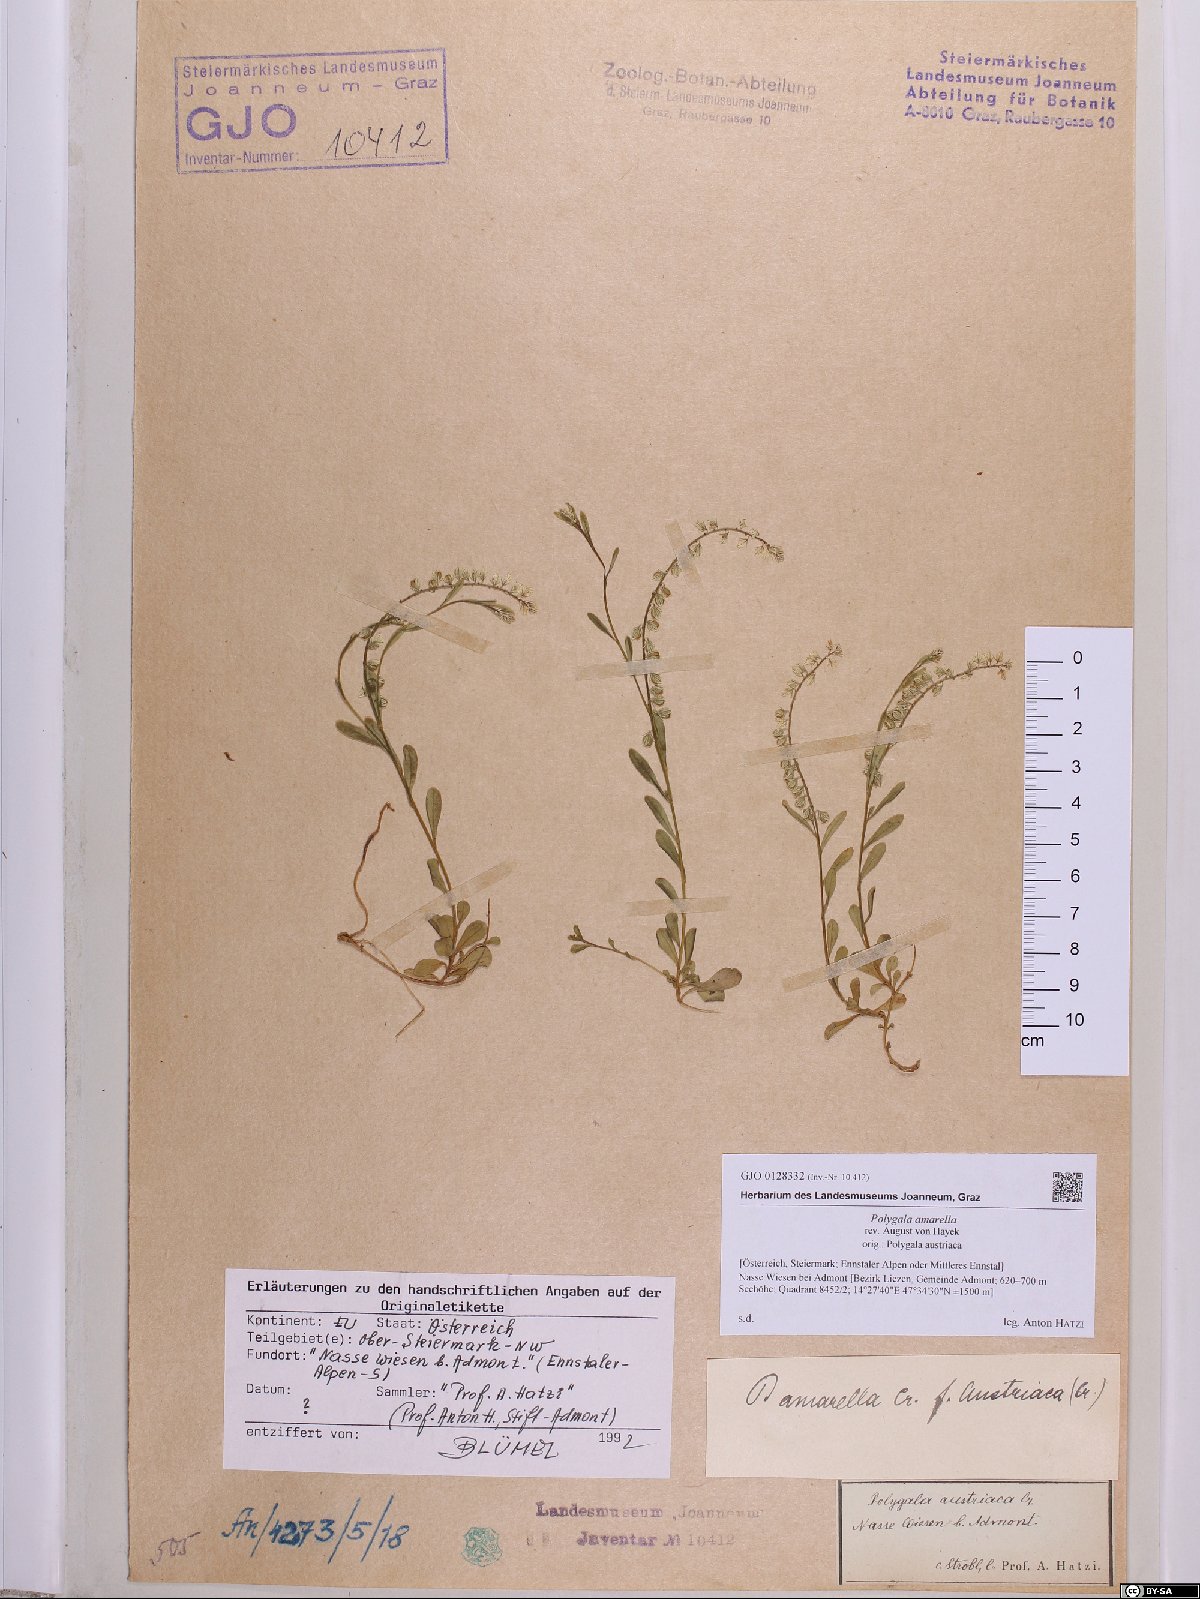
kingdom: Plantae
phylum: Tracheophyta
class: Magnoliopsida
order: Fabales
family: Polygalaceae
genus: Polygala
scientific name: Polygala amarella
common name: Dwarf milkwort
